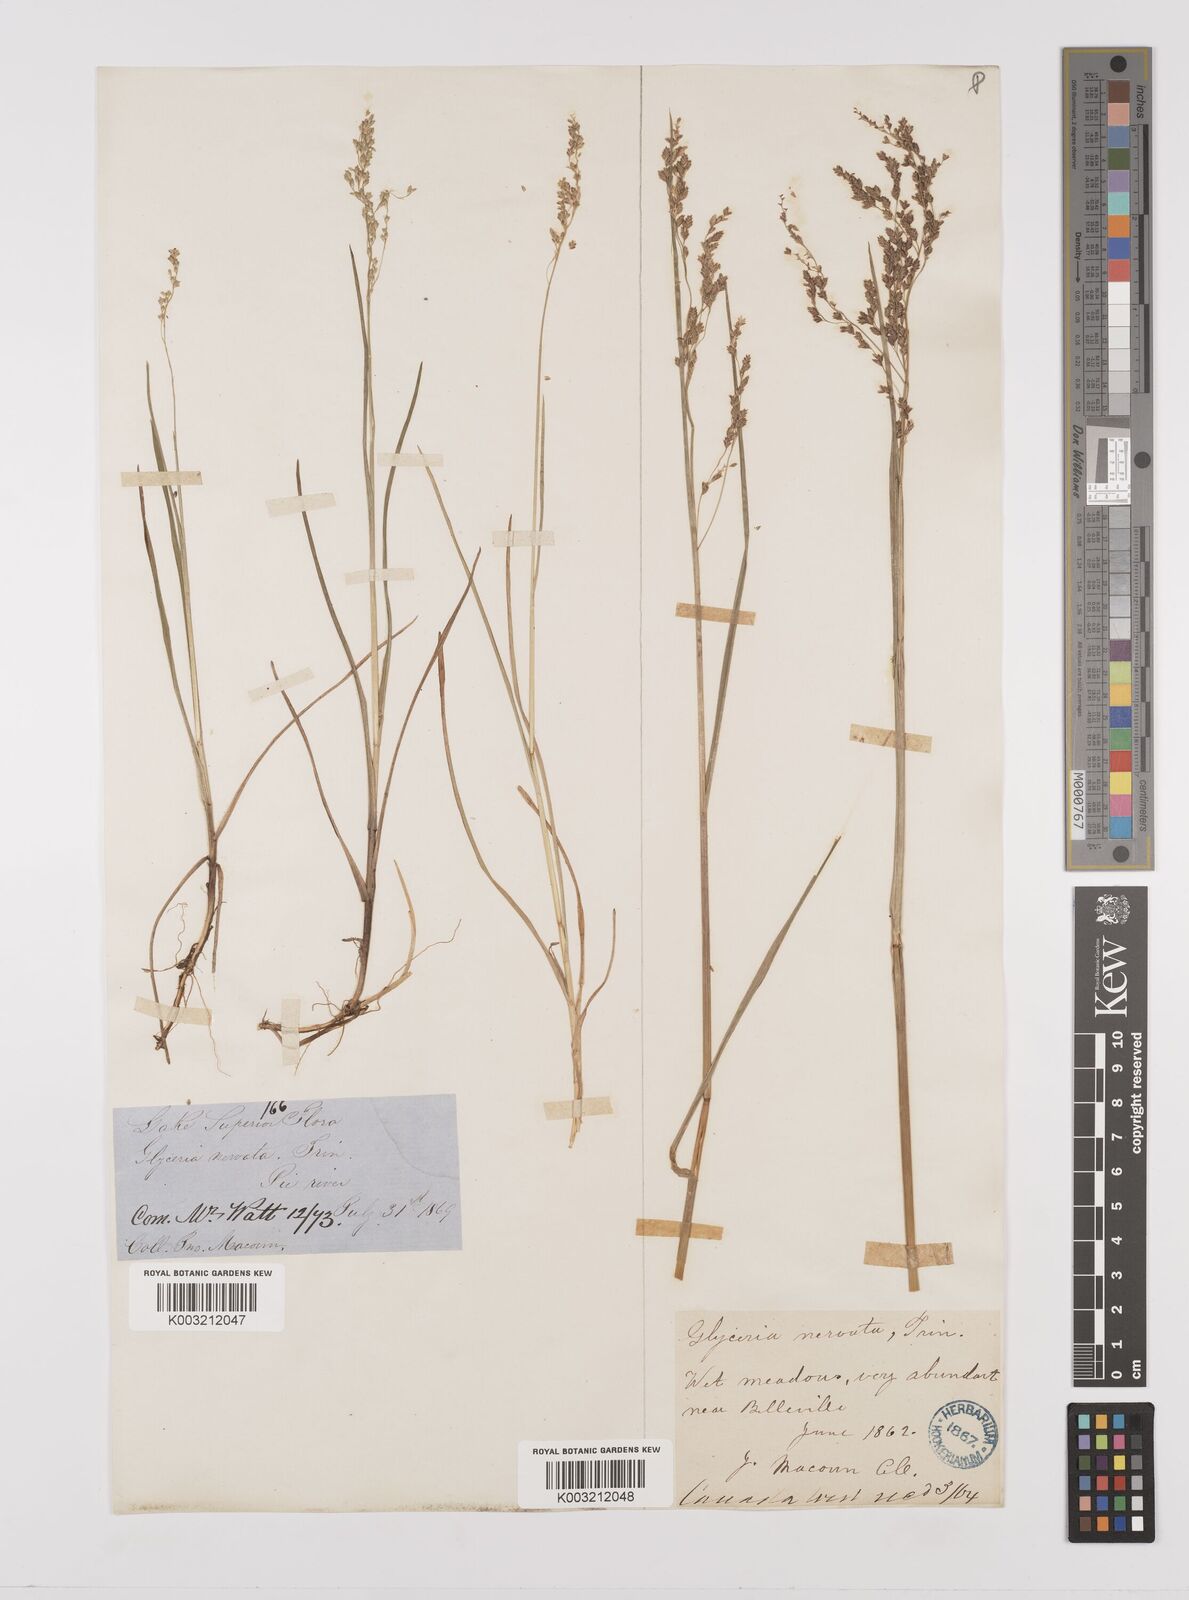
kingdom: Plantae
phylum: Tracheophyta
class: Liliopsida
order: Poales
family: Poaceae
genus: Glyceria
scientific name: Glyceria striata
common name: Fowl manna grass
